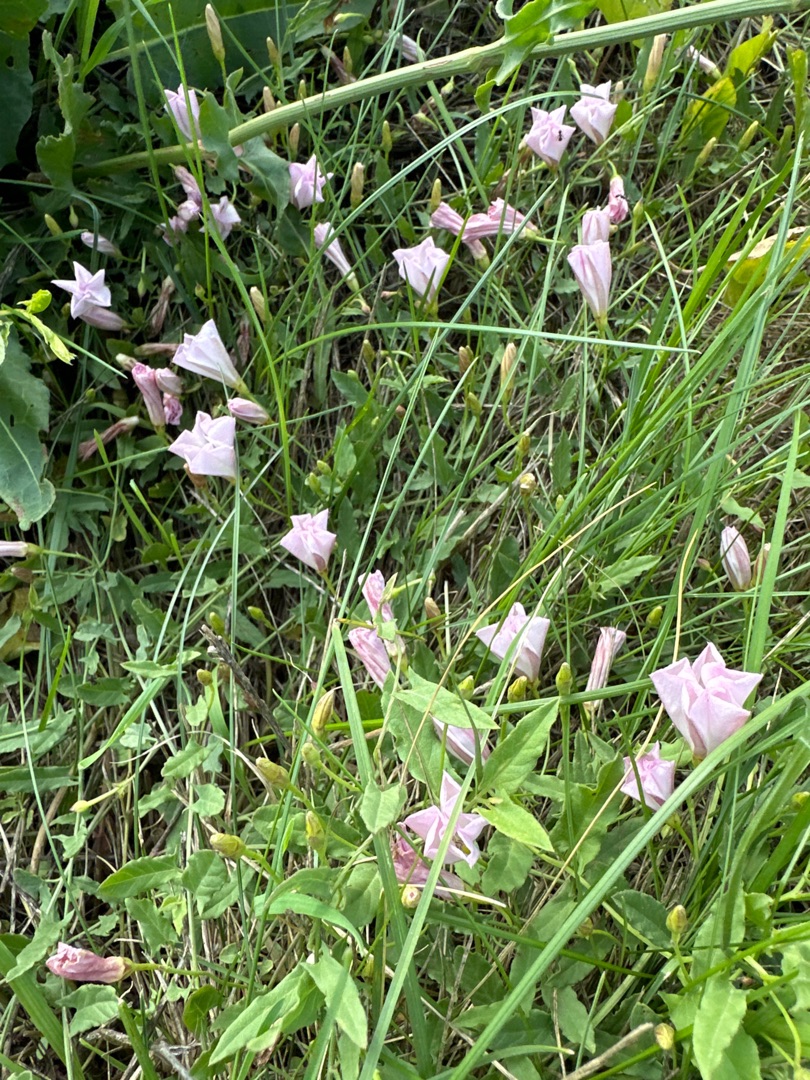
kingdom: Plantae
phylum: Tracheophyta
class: Magnoliopsida
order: Solanales
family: Convolvulaceae
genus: Convolvulus
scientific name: Convolvulus arvensis
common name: Ager-snerle
